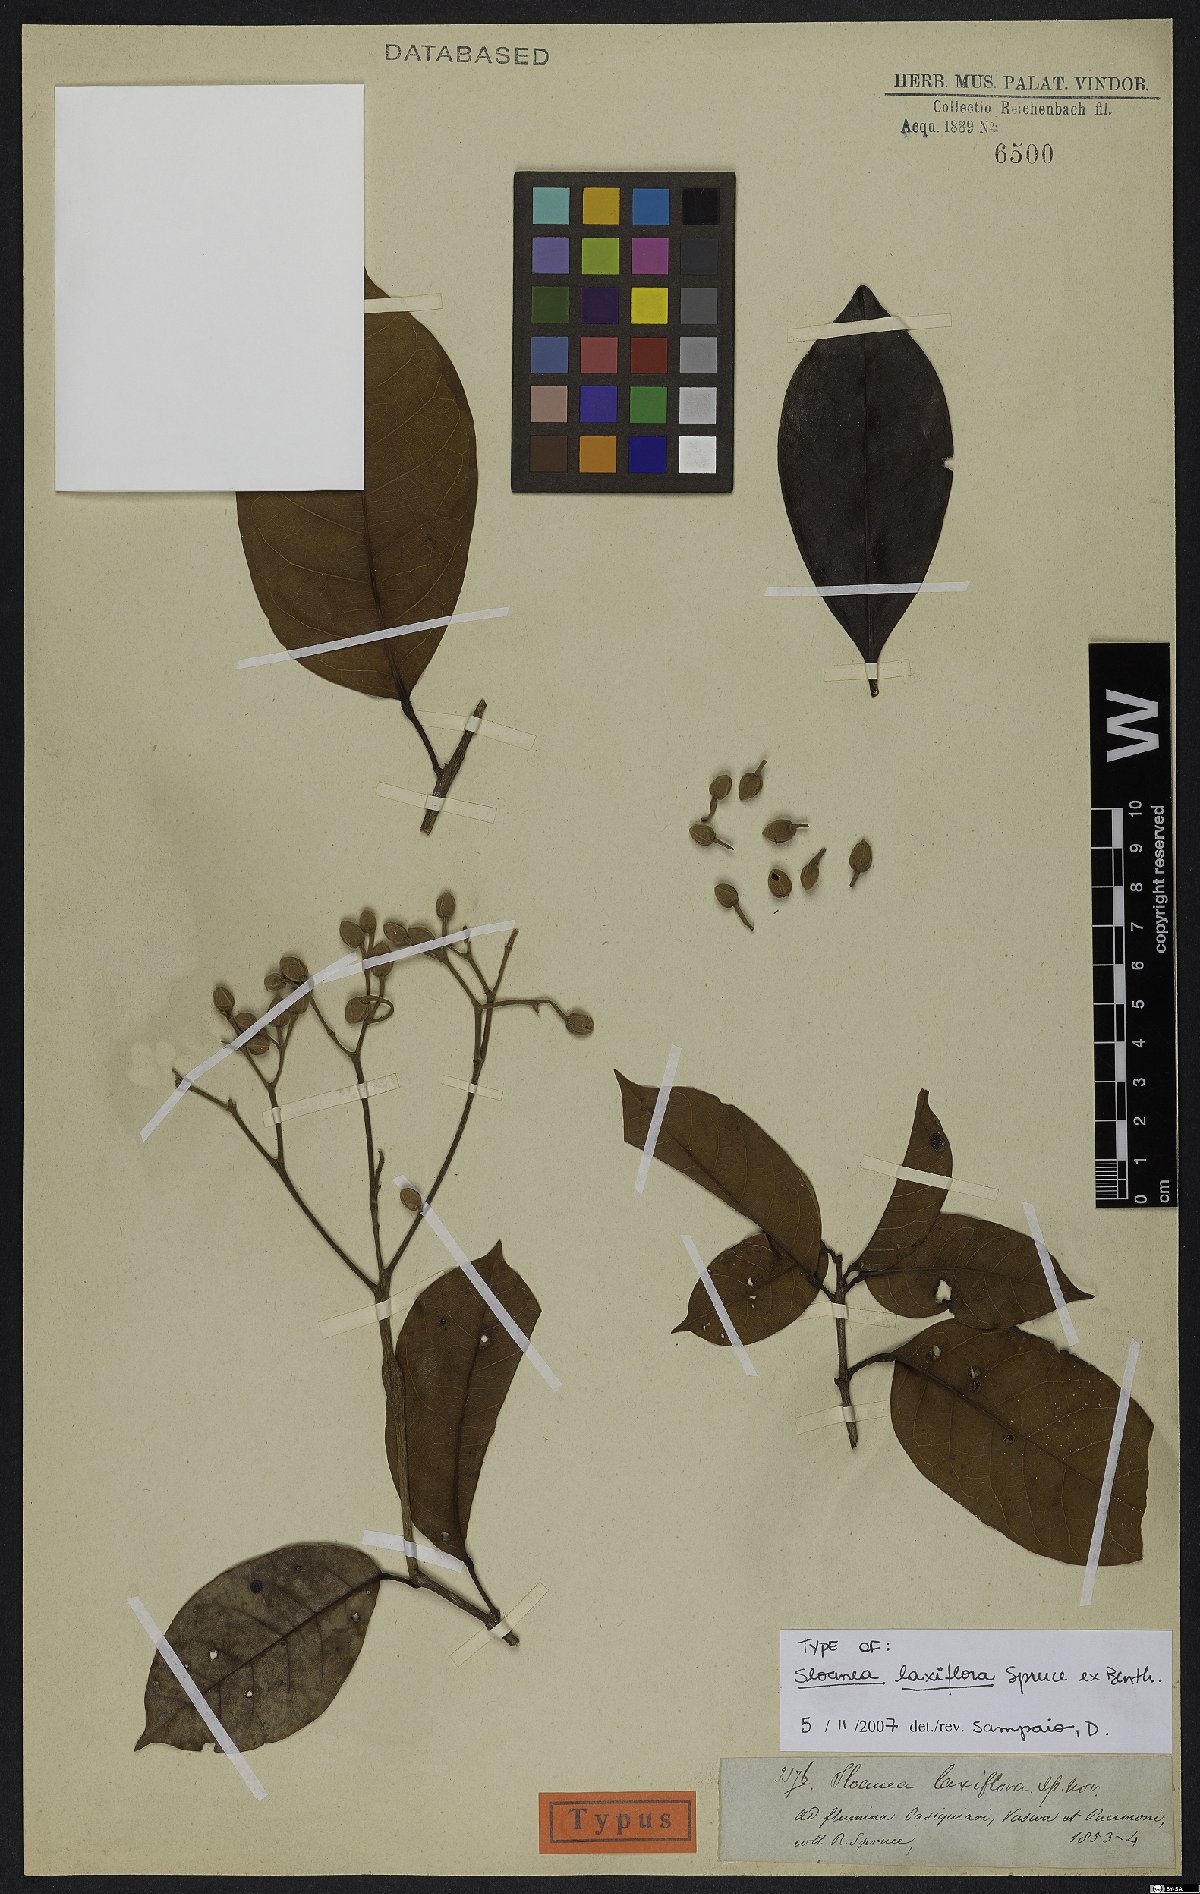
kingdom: Plantae
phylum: Tracheophyta
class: Magnoliopsida
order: Oxalidales
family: Elaeocarpaceae
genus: Sloanea
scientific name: Sloanea laxiflora
